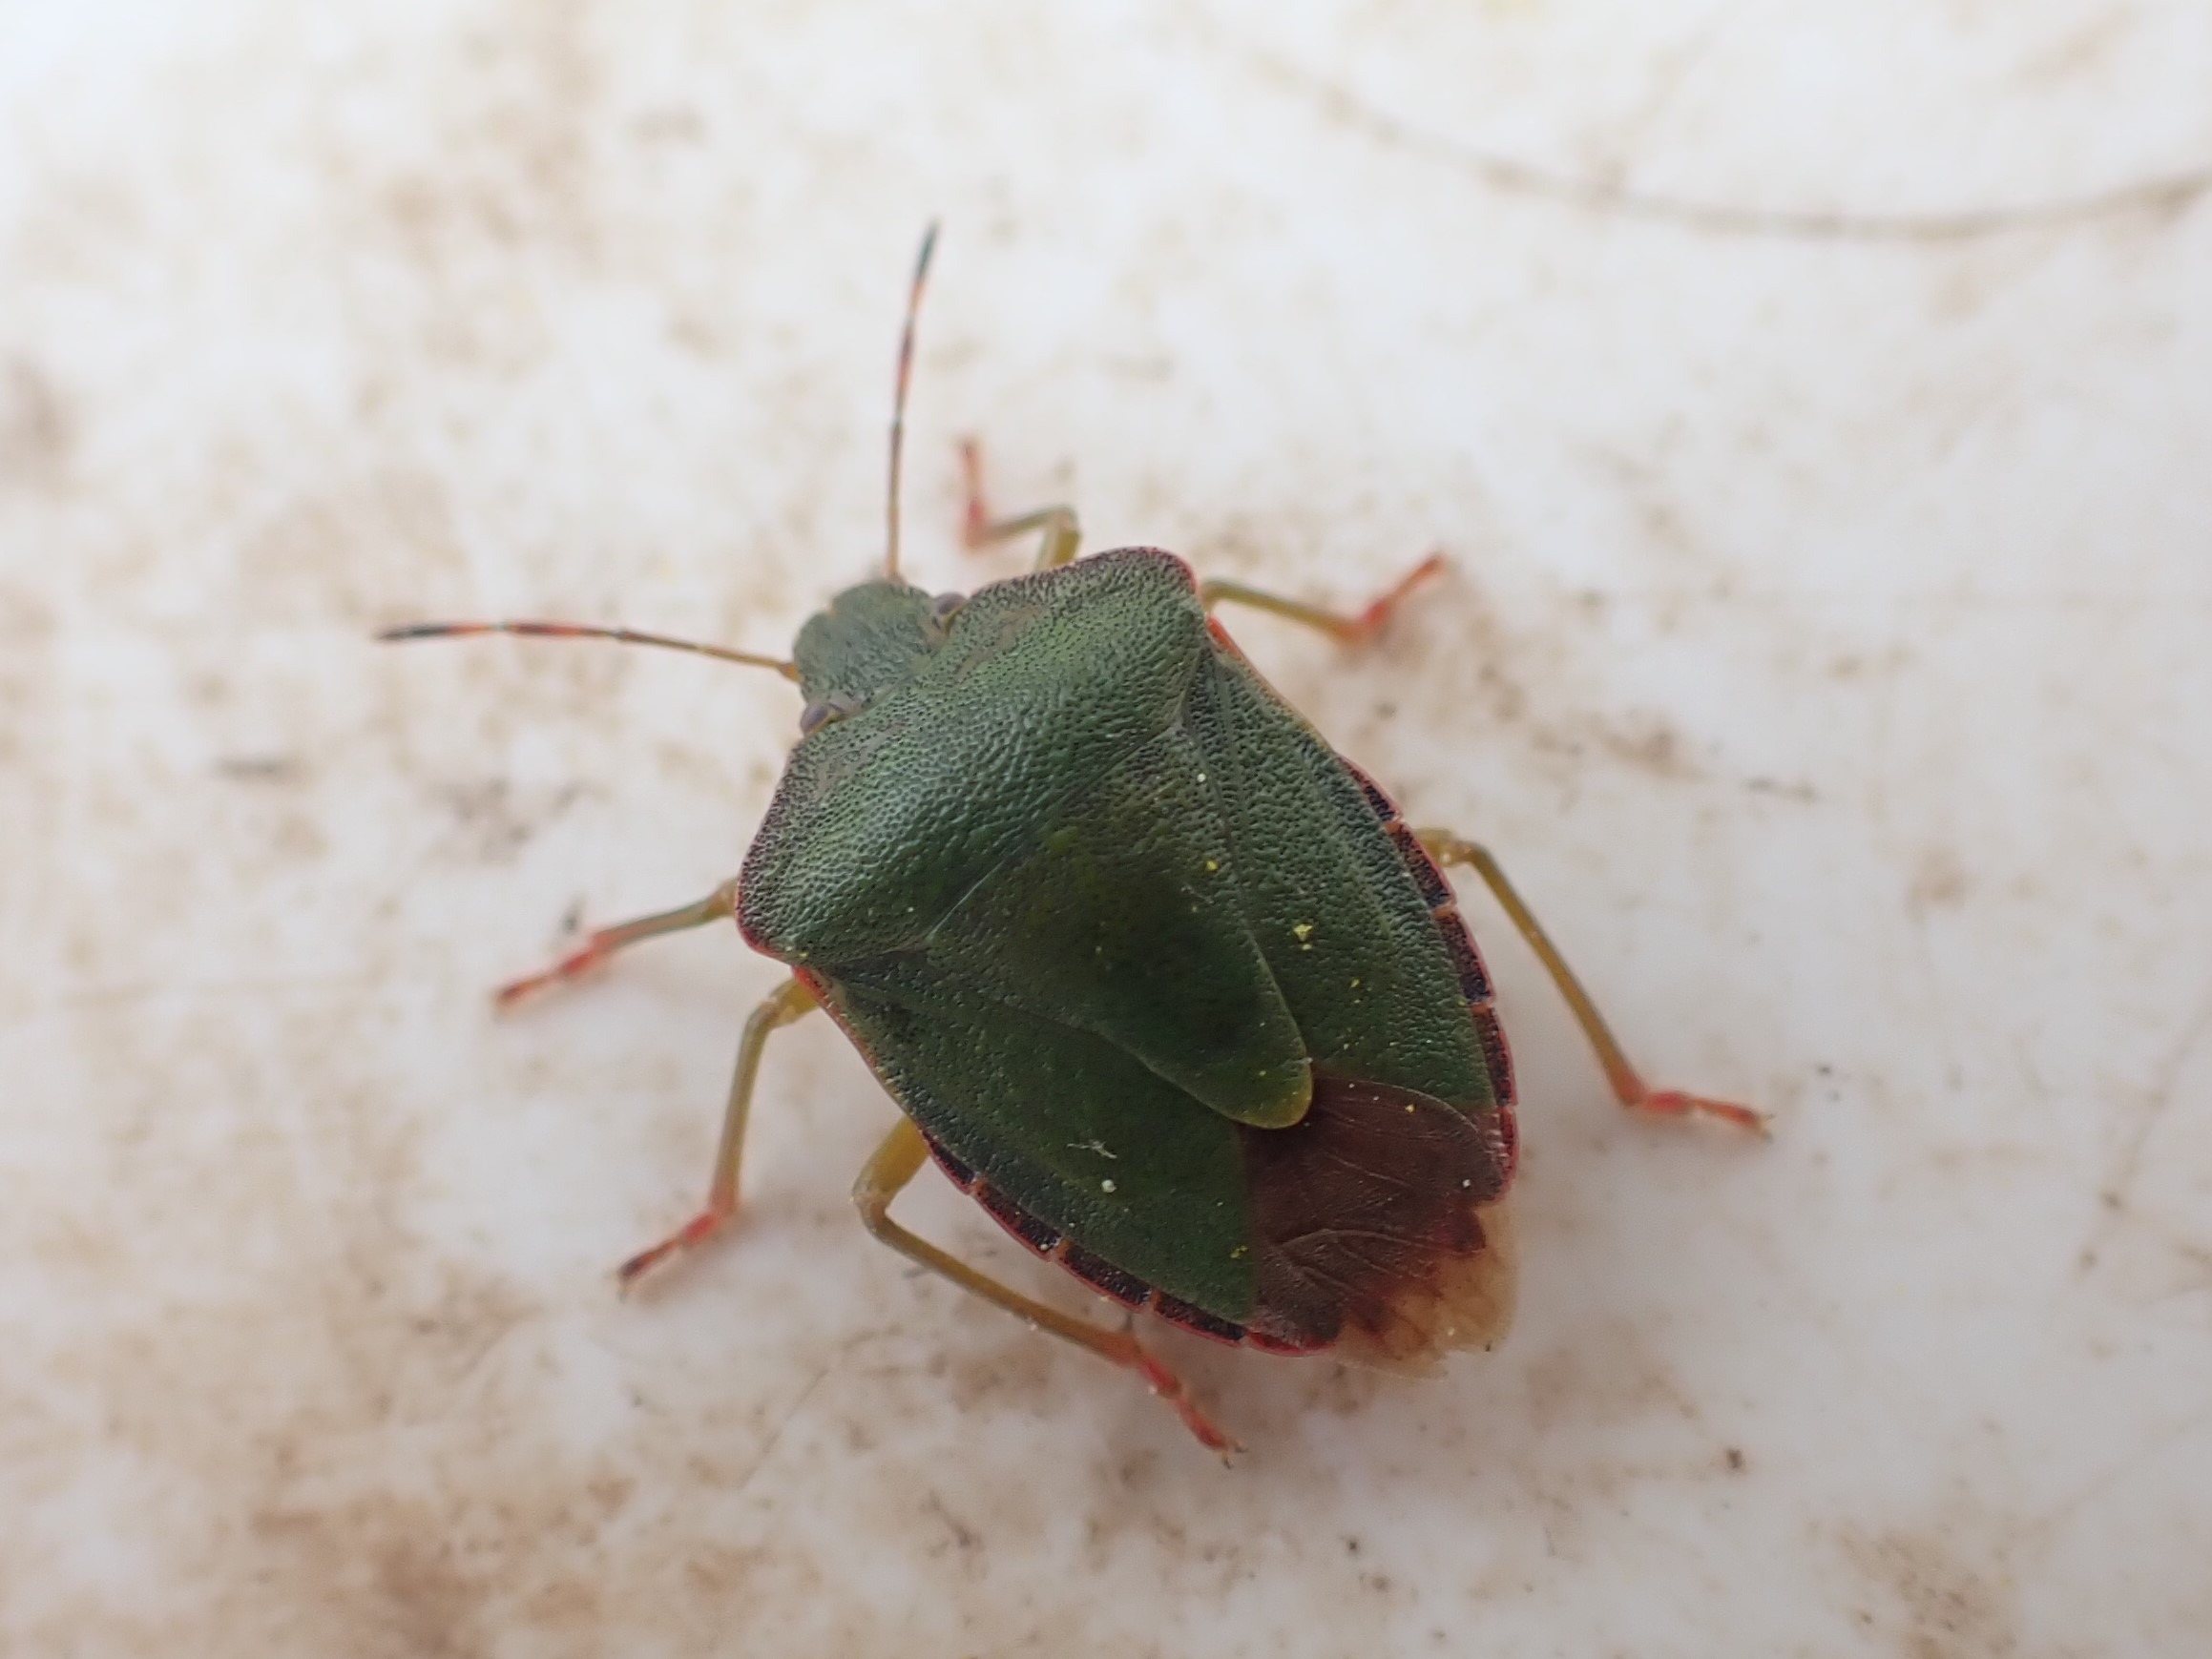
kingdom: Animalia
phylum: Arthropoda
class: Insecta
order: Hemiptera
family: Pentatomidae
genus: Palomena
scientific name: Palomena prasina
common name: Grøn bredtæge
